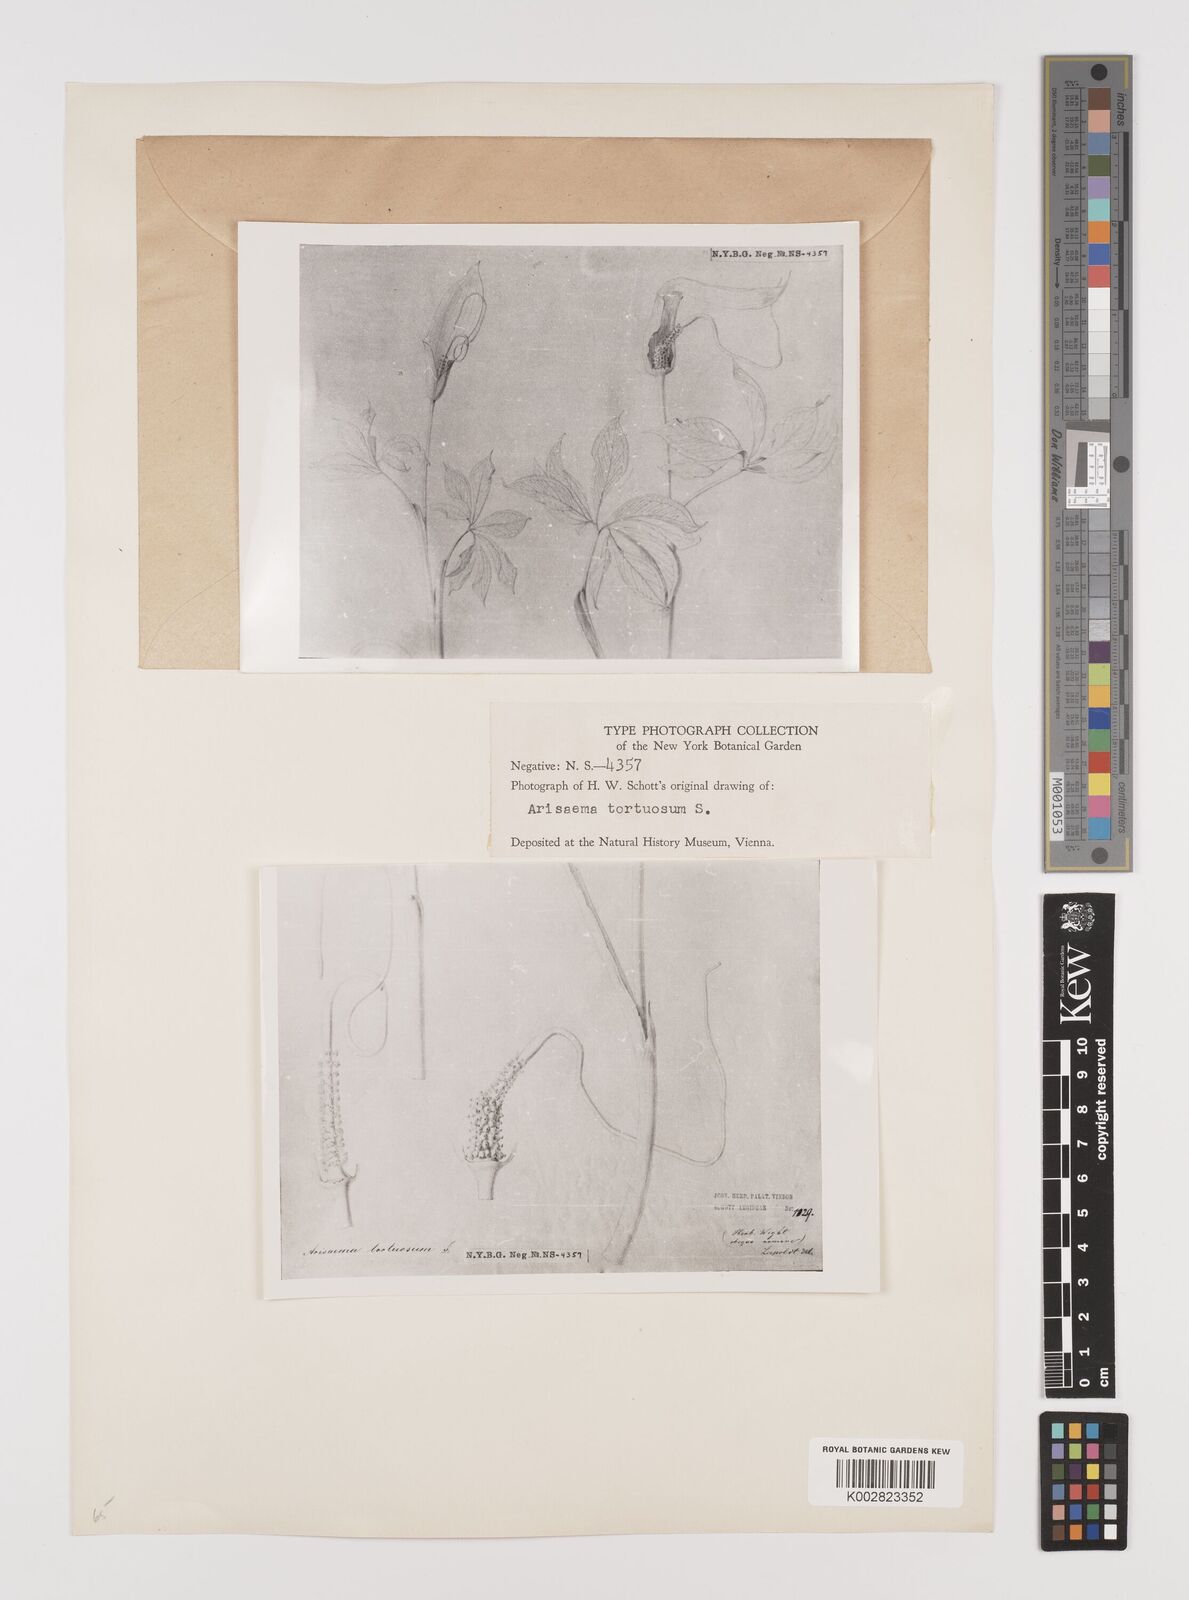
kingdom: Plantae
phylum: Tracheophyta
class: Liliopsida
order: Alismatales
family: Araceae
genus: Arisaema
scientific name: Arisaema tortuosum
